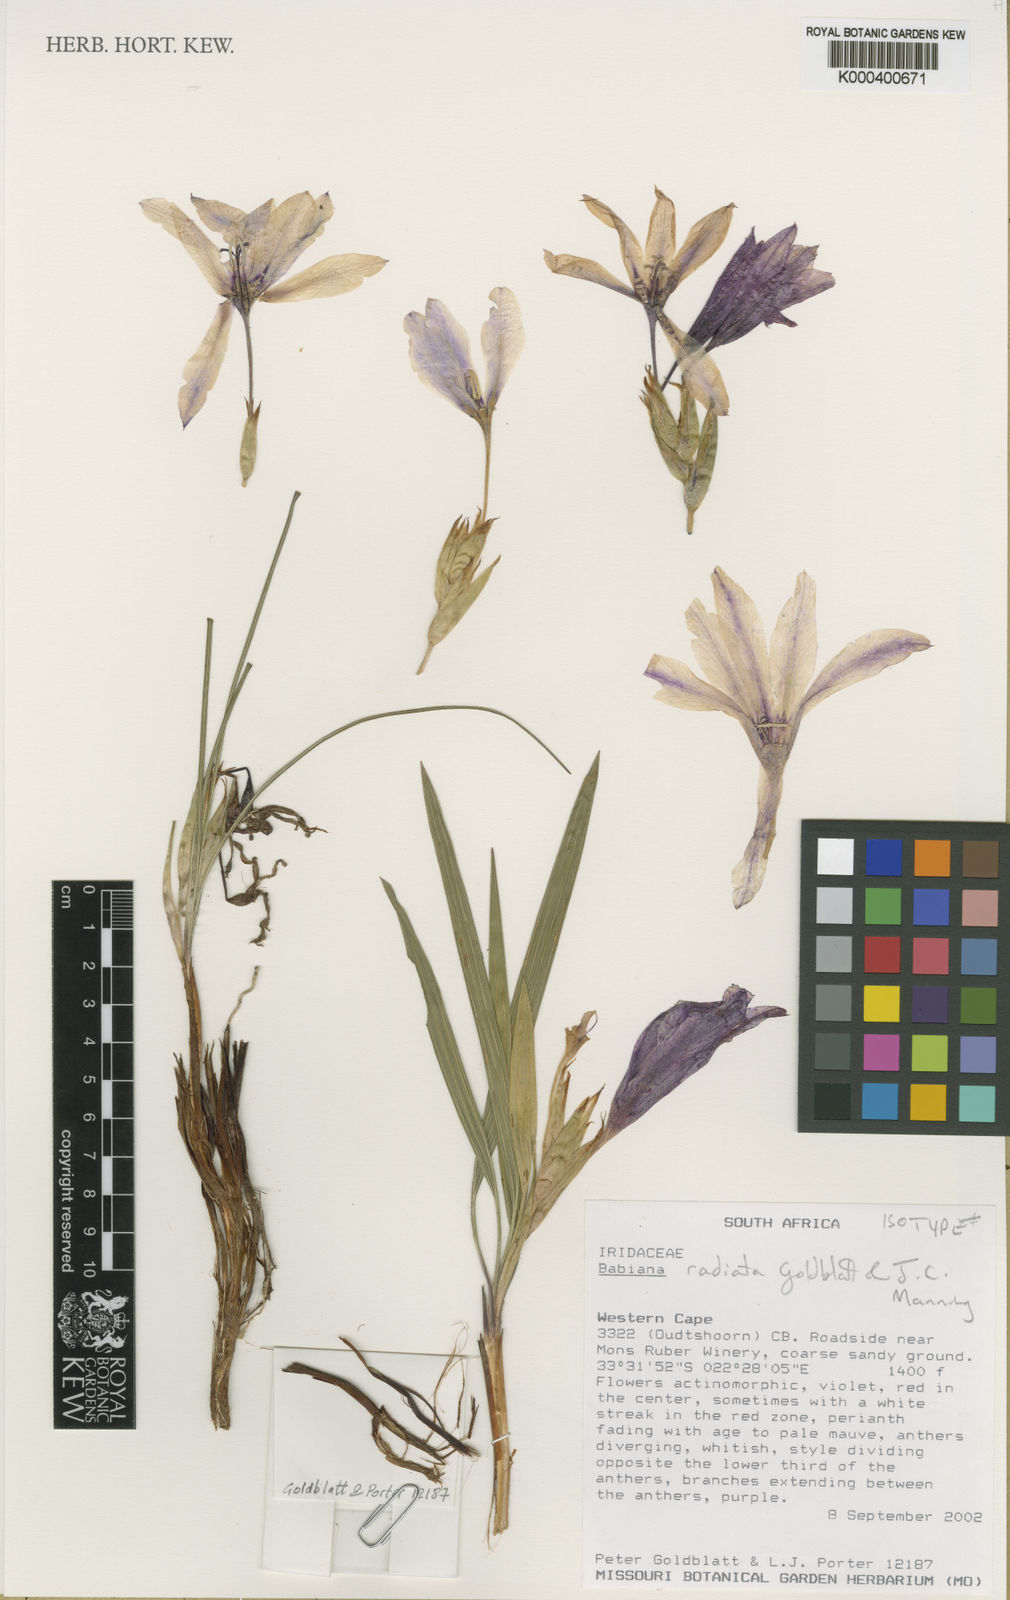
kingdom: Plantae
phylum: Tracheophyta
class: Liliopsida
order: Asparagales
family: Iridaceae
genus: Babiana
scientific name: Babiana radiata
